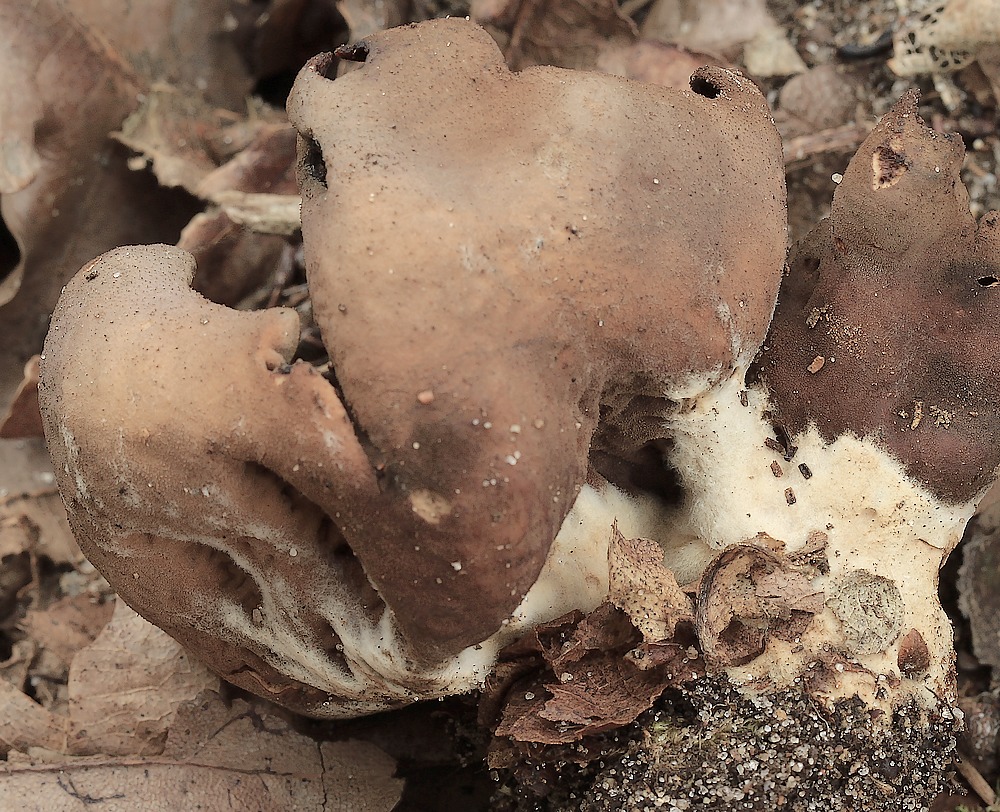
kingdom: Fungi
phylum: Ascomycota
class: Pezizomycetes
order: Pezizales
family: Otideaceae
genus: Otidea
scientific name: Otidea bufonia
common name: brun ørebæger
